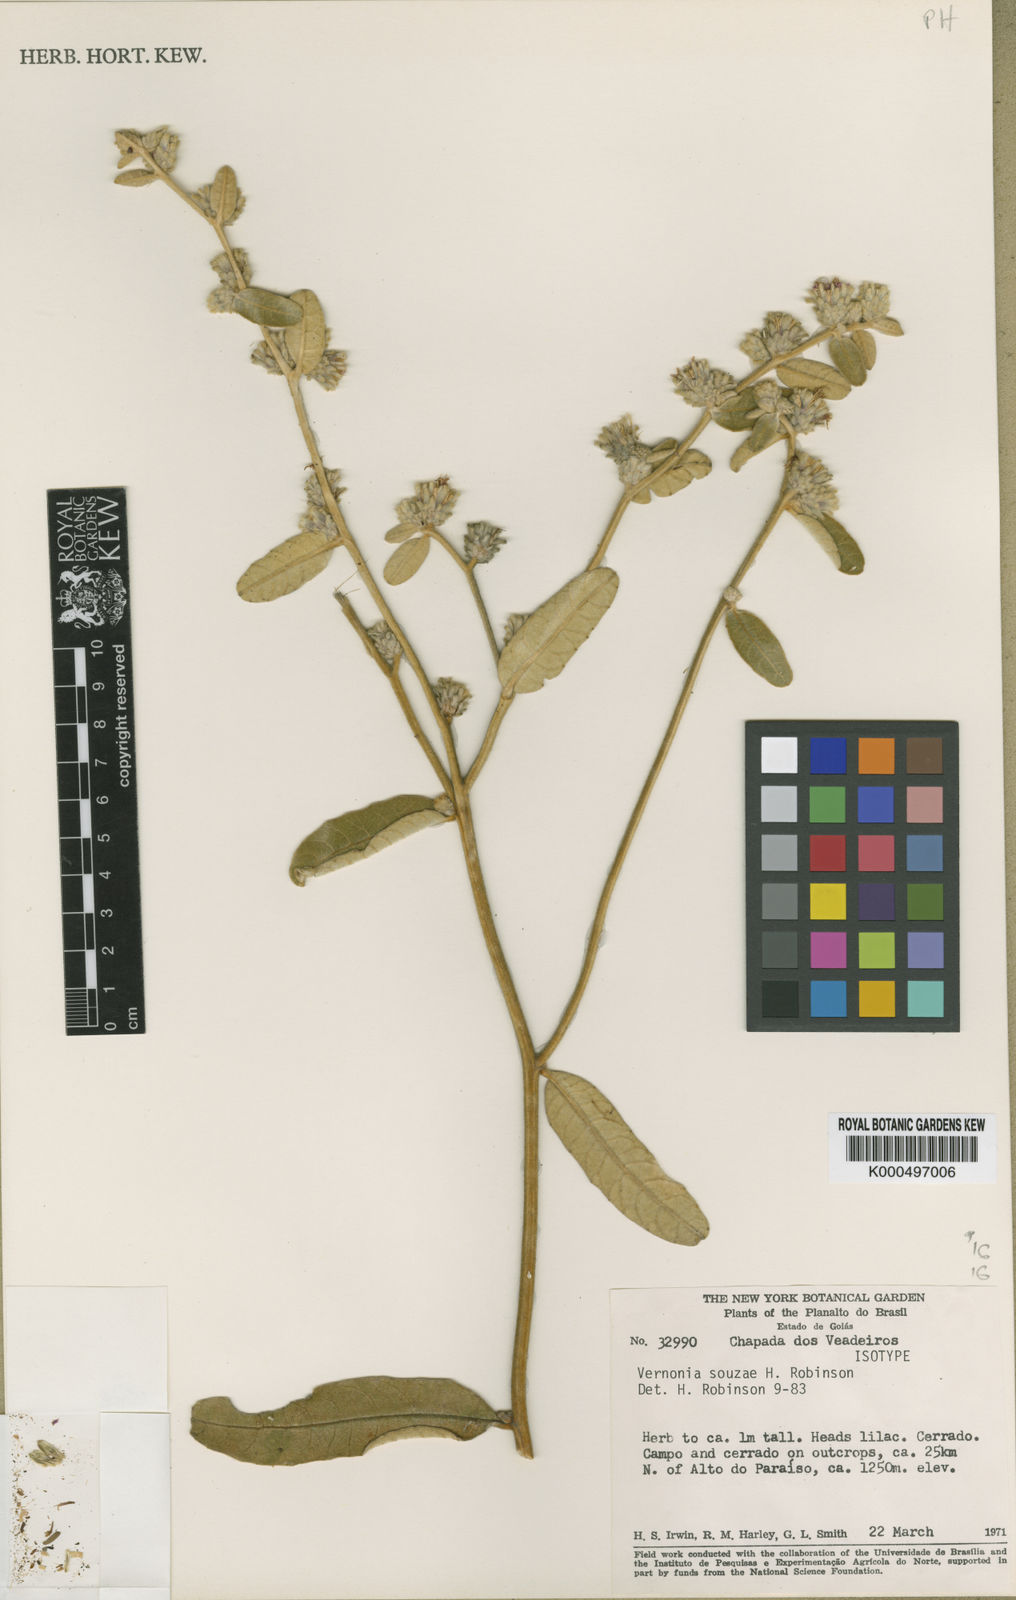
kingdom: Plantae
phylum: Tracheophyta
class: Magnoliopsida
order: Asterales
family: Asteraceae
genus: Lessingianthus
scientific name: Lessingianthus souzae
